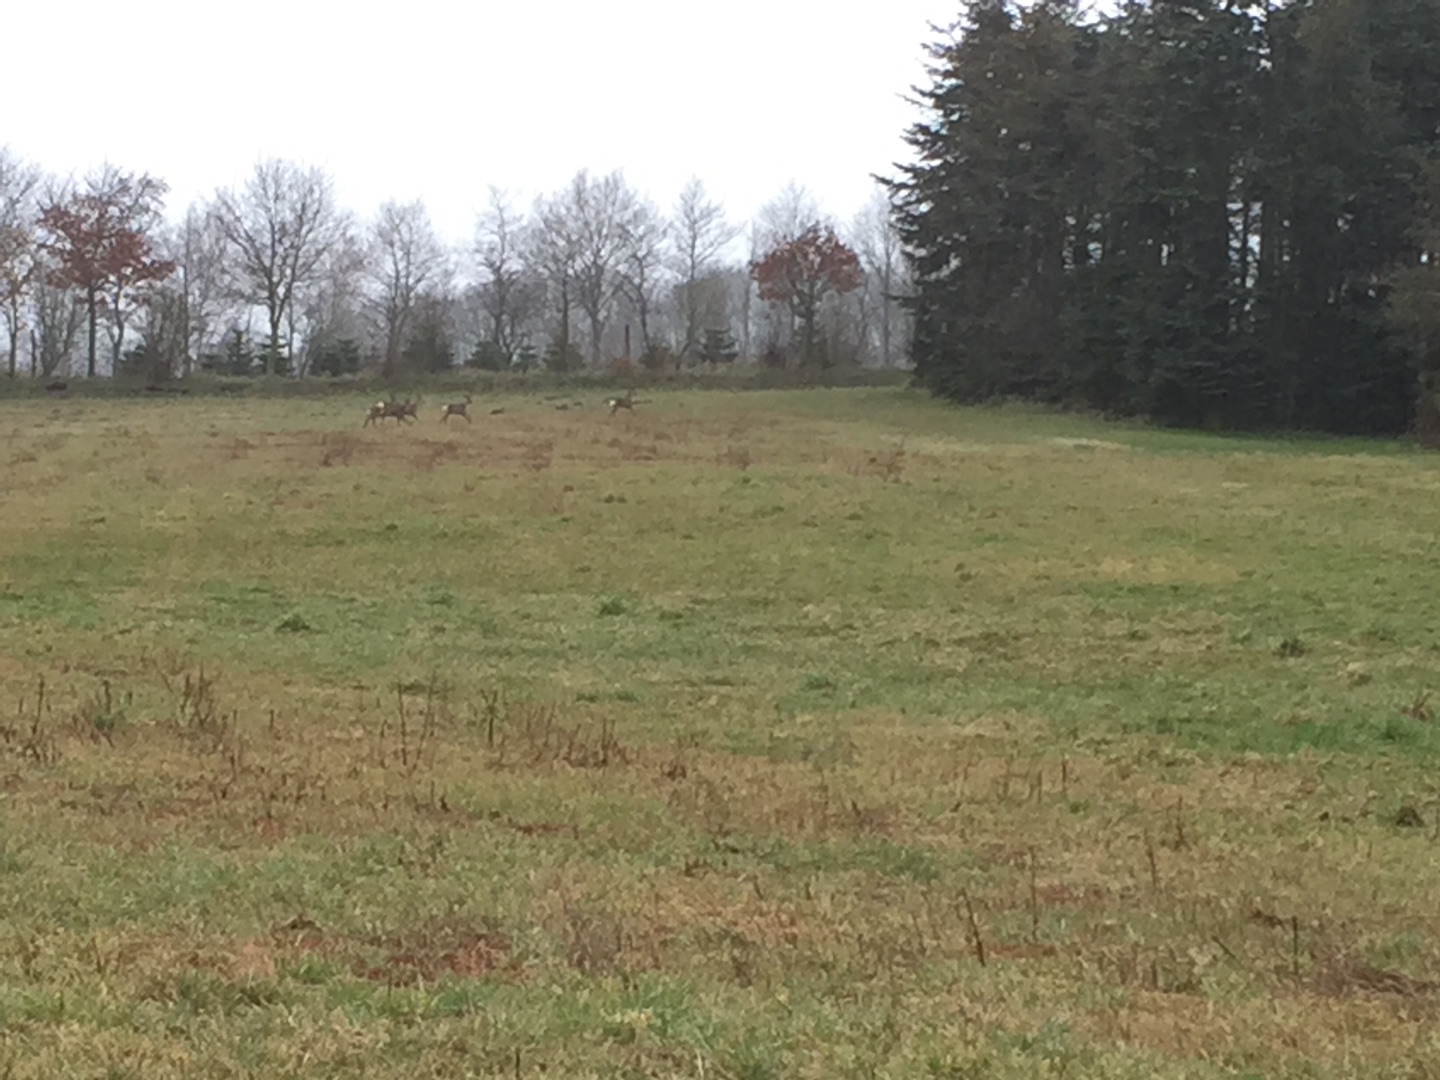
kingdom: Animalia
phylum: Chordata
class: Mammalia
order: Artiodactyla
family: Cervidae
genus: Capreolus
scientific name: Capreolus capreolus
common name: Rådyr
